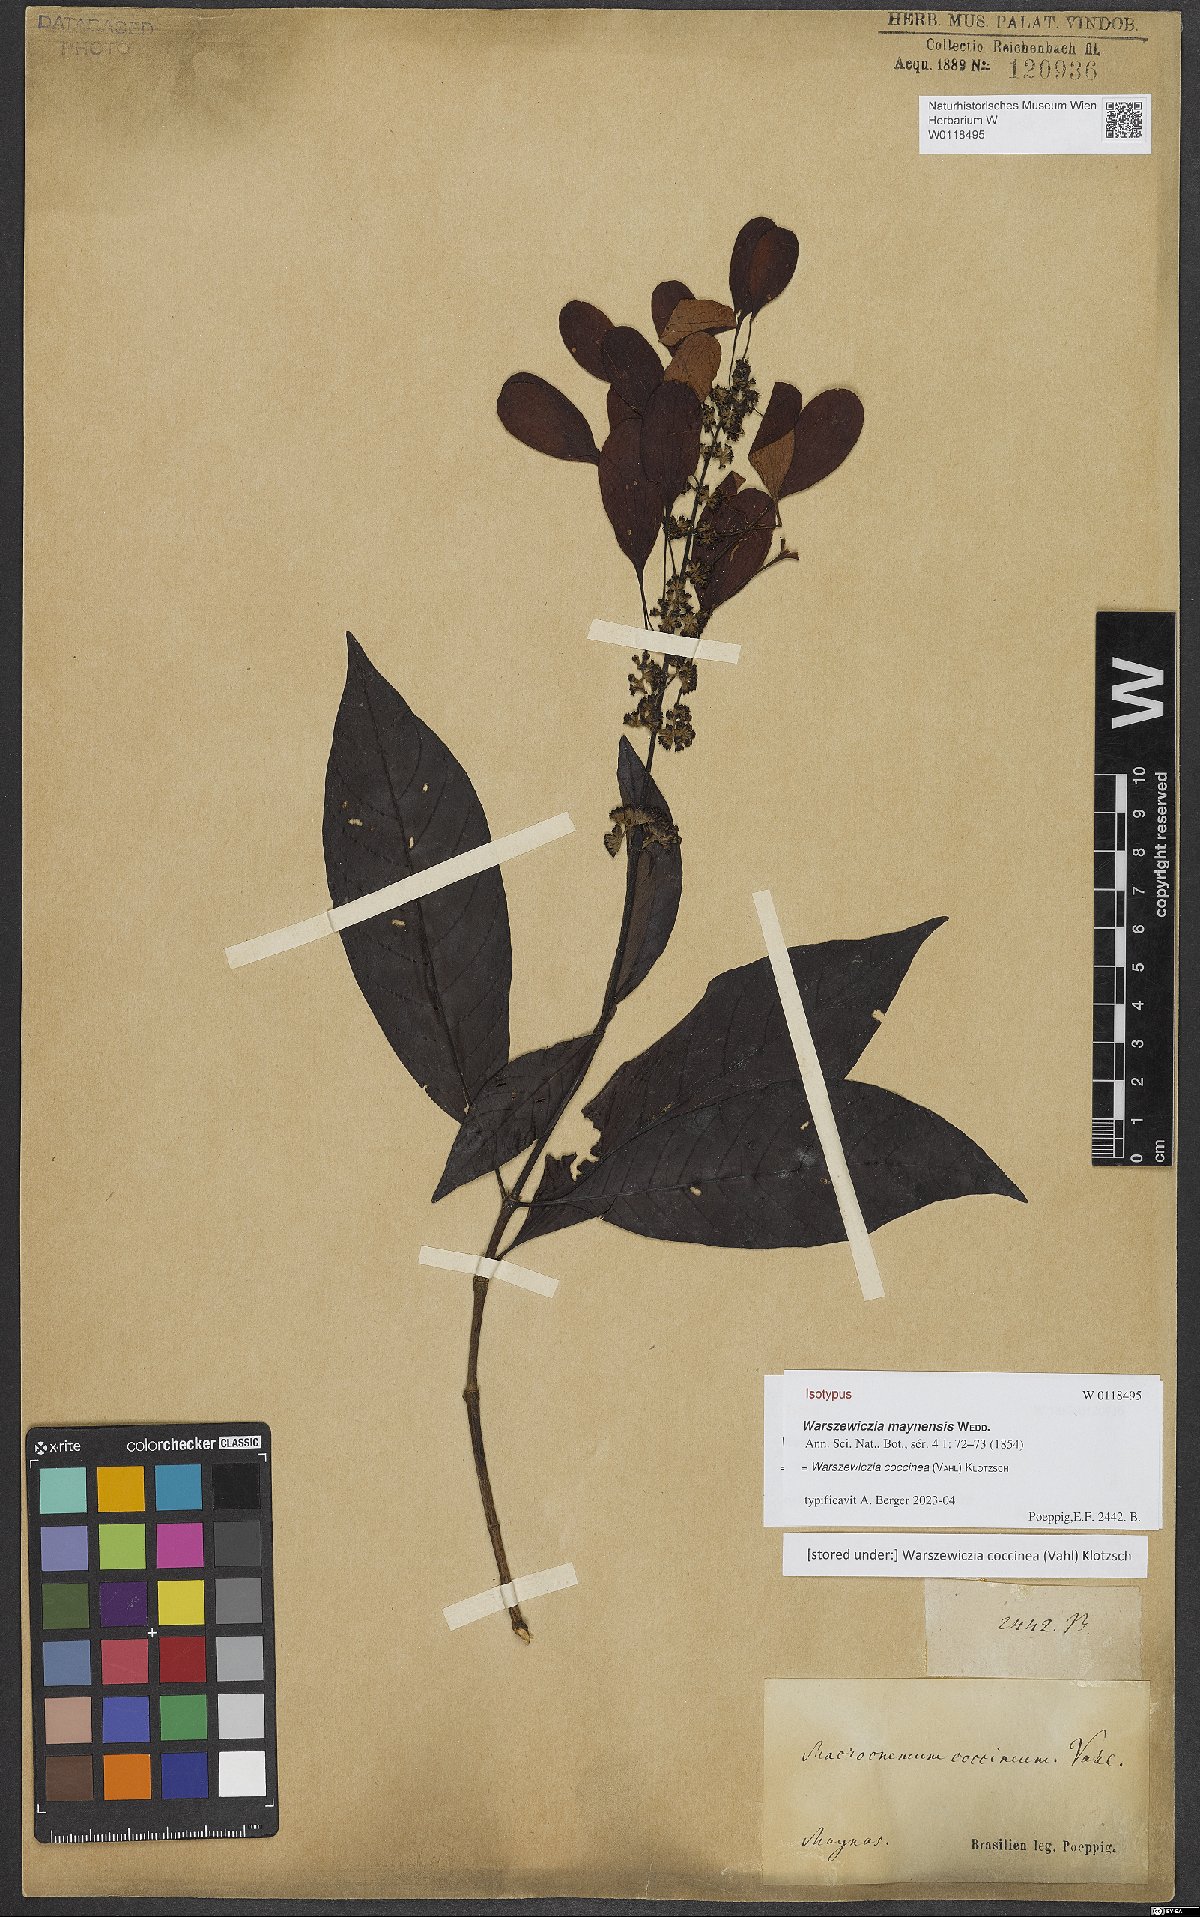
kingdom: Plantae
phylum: Tracheophyta
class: Magnoliopsida
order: Gentianales
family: Rubiaceae
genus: Warszewiczia
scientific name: Warszewiczia coccinea
